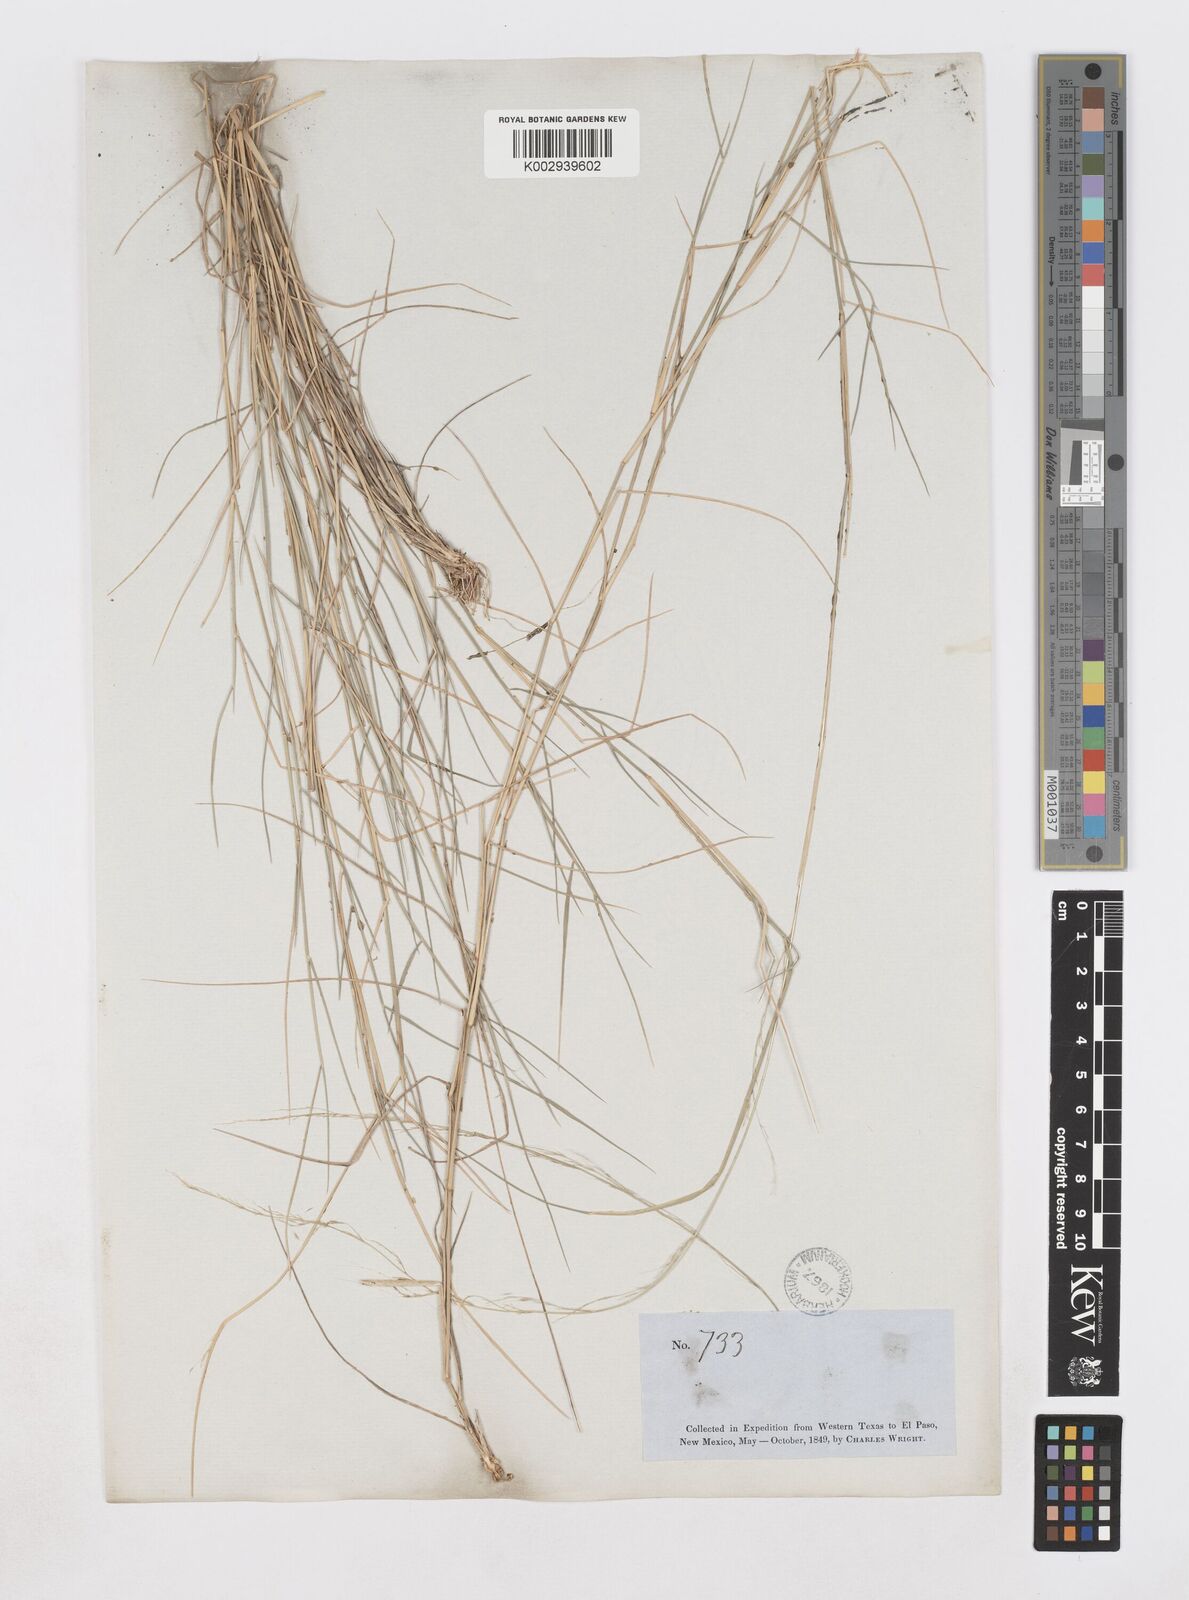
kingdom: Plantae
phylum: Tracheophyta
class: Liliopsida
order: Poales
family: Poaceae
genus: Muhlenbergia
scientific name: Muhlenbergia spiciformis
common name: Longawn muhly
